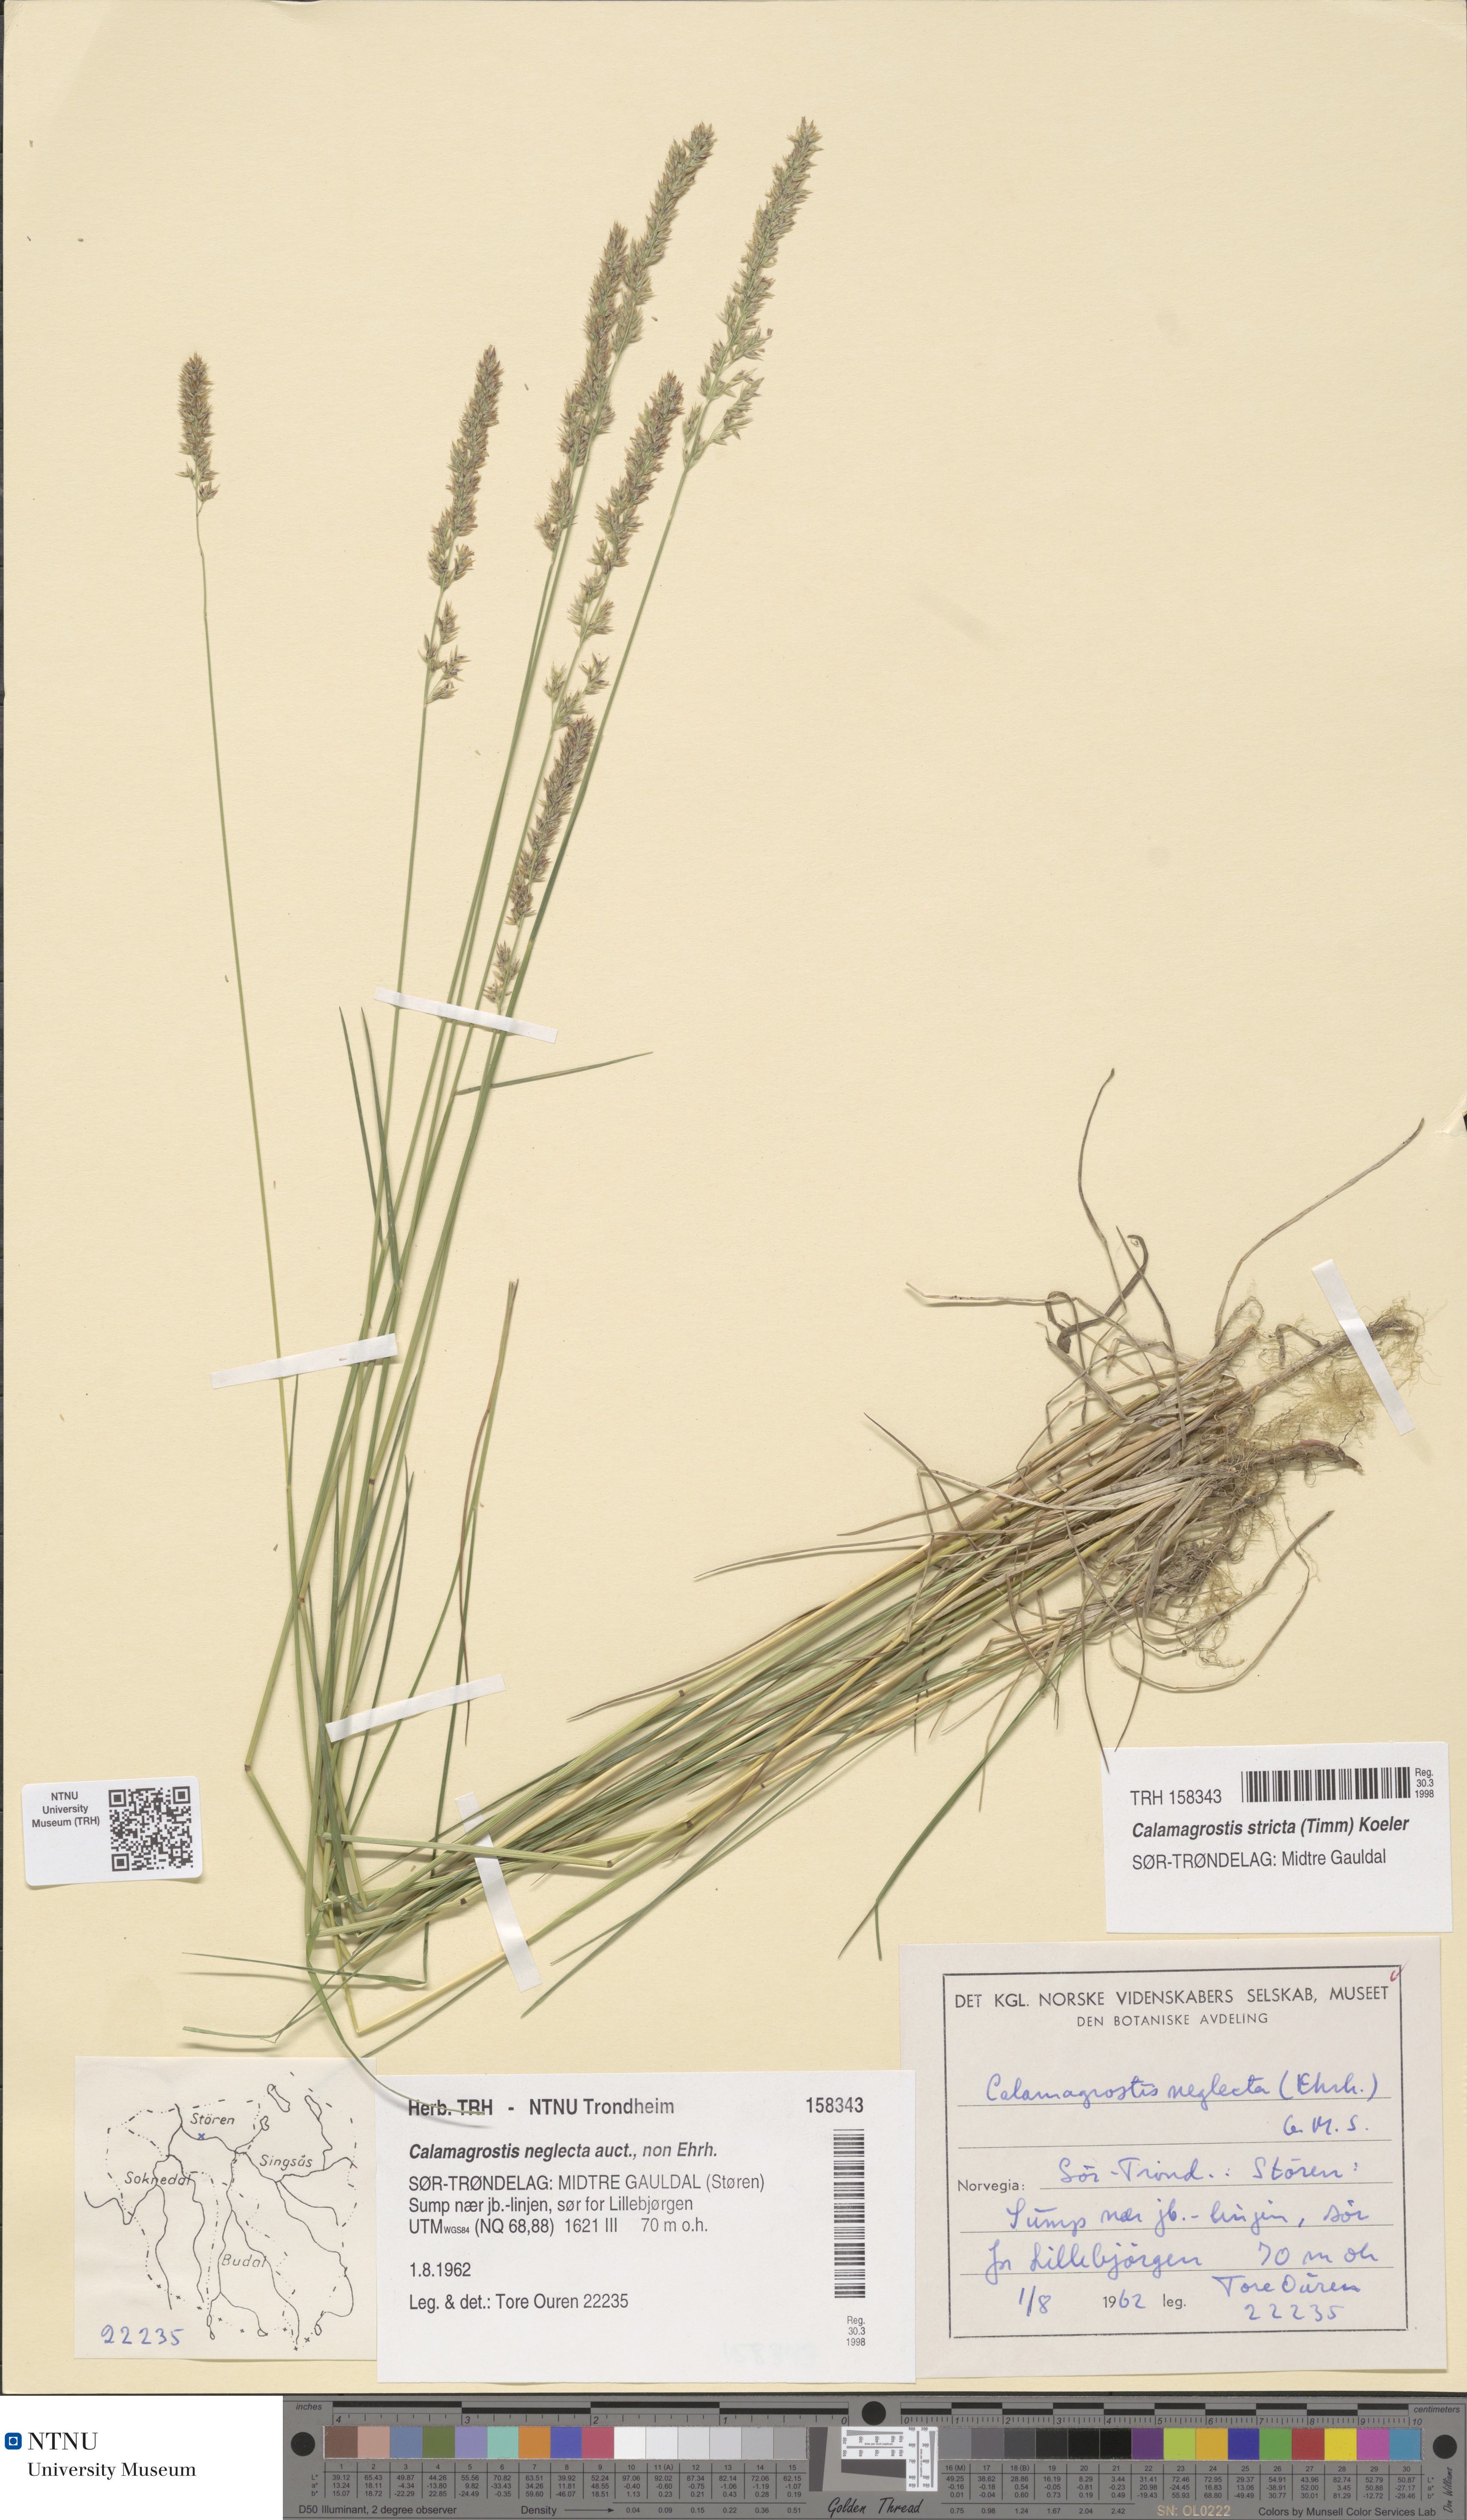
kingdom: Plantae
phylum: Tracheophyta
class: Liliopsida
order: Poales
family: Poaceae
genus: Achnatherum
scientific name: Achnatherum calamagrostis
